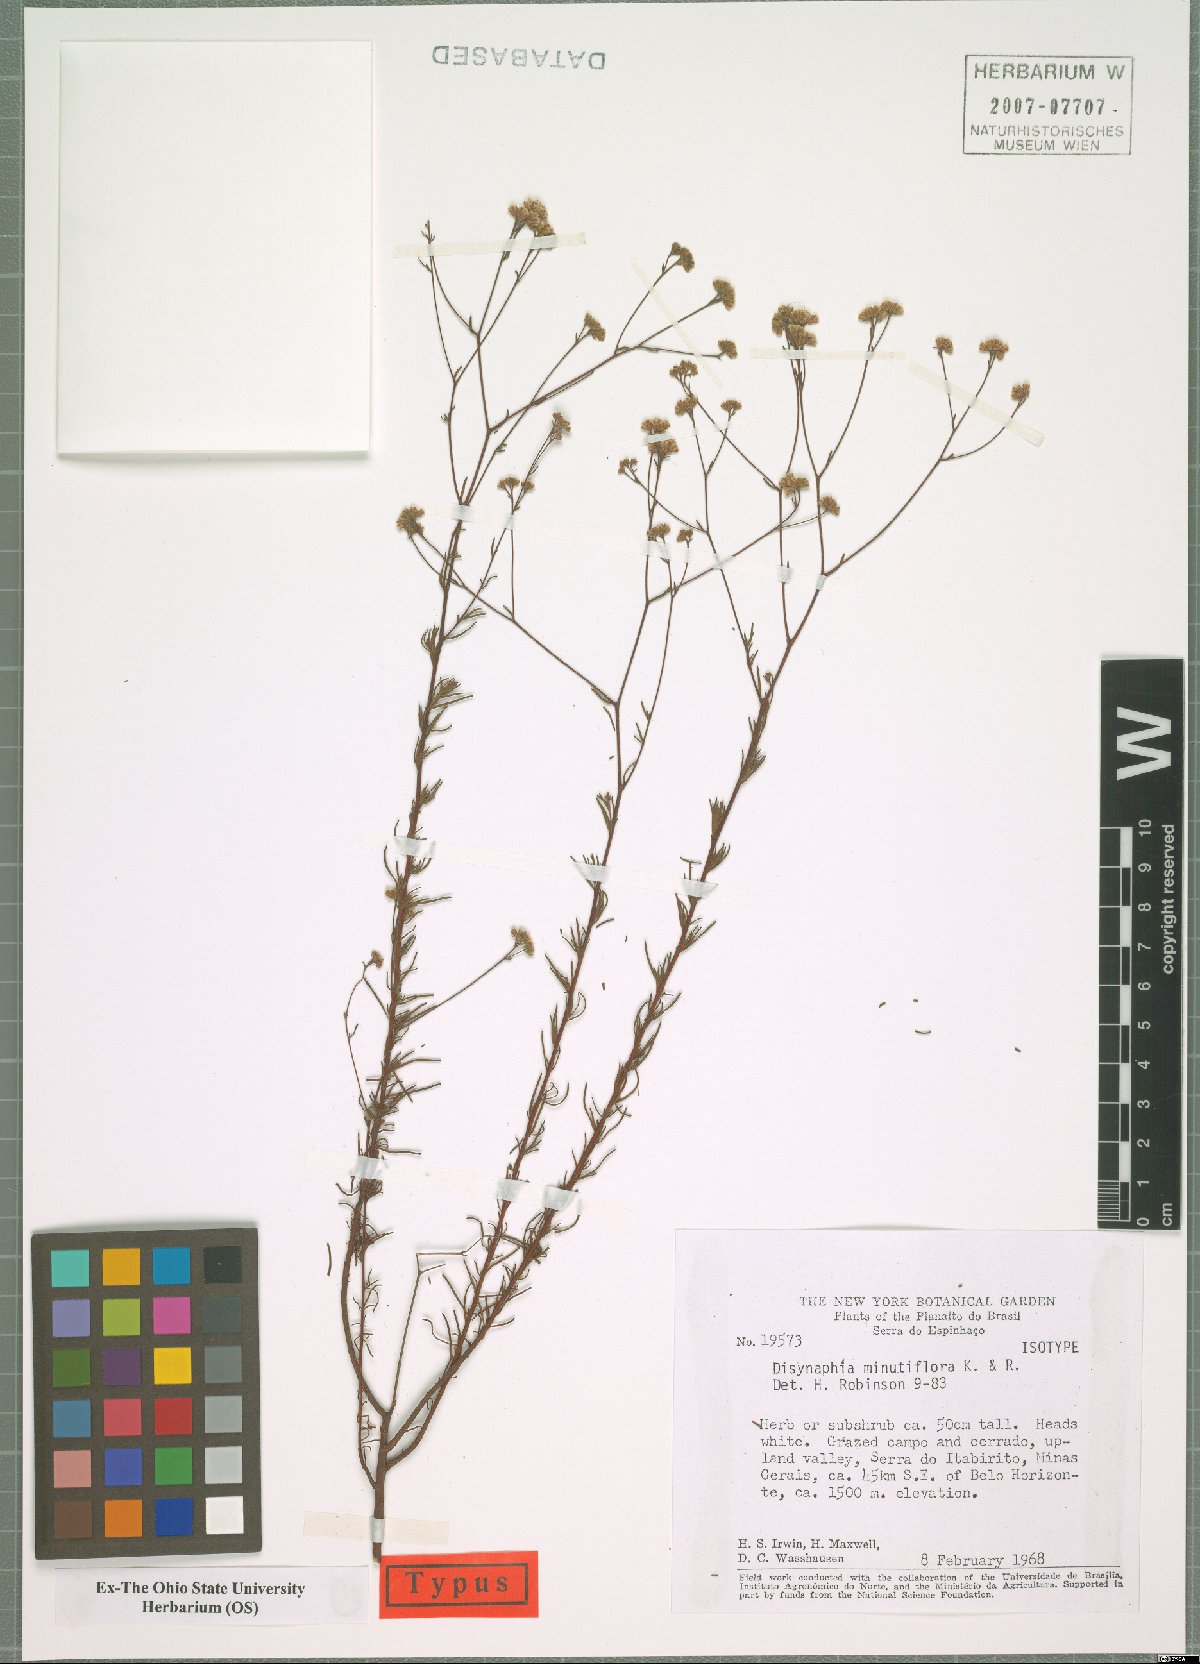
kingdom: Plantae
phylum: Tracheophyta
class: Magnoliopsida
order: Asterales
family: Asteraceae
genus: Disynaphia
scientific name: Disynaphia minutiflora
